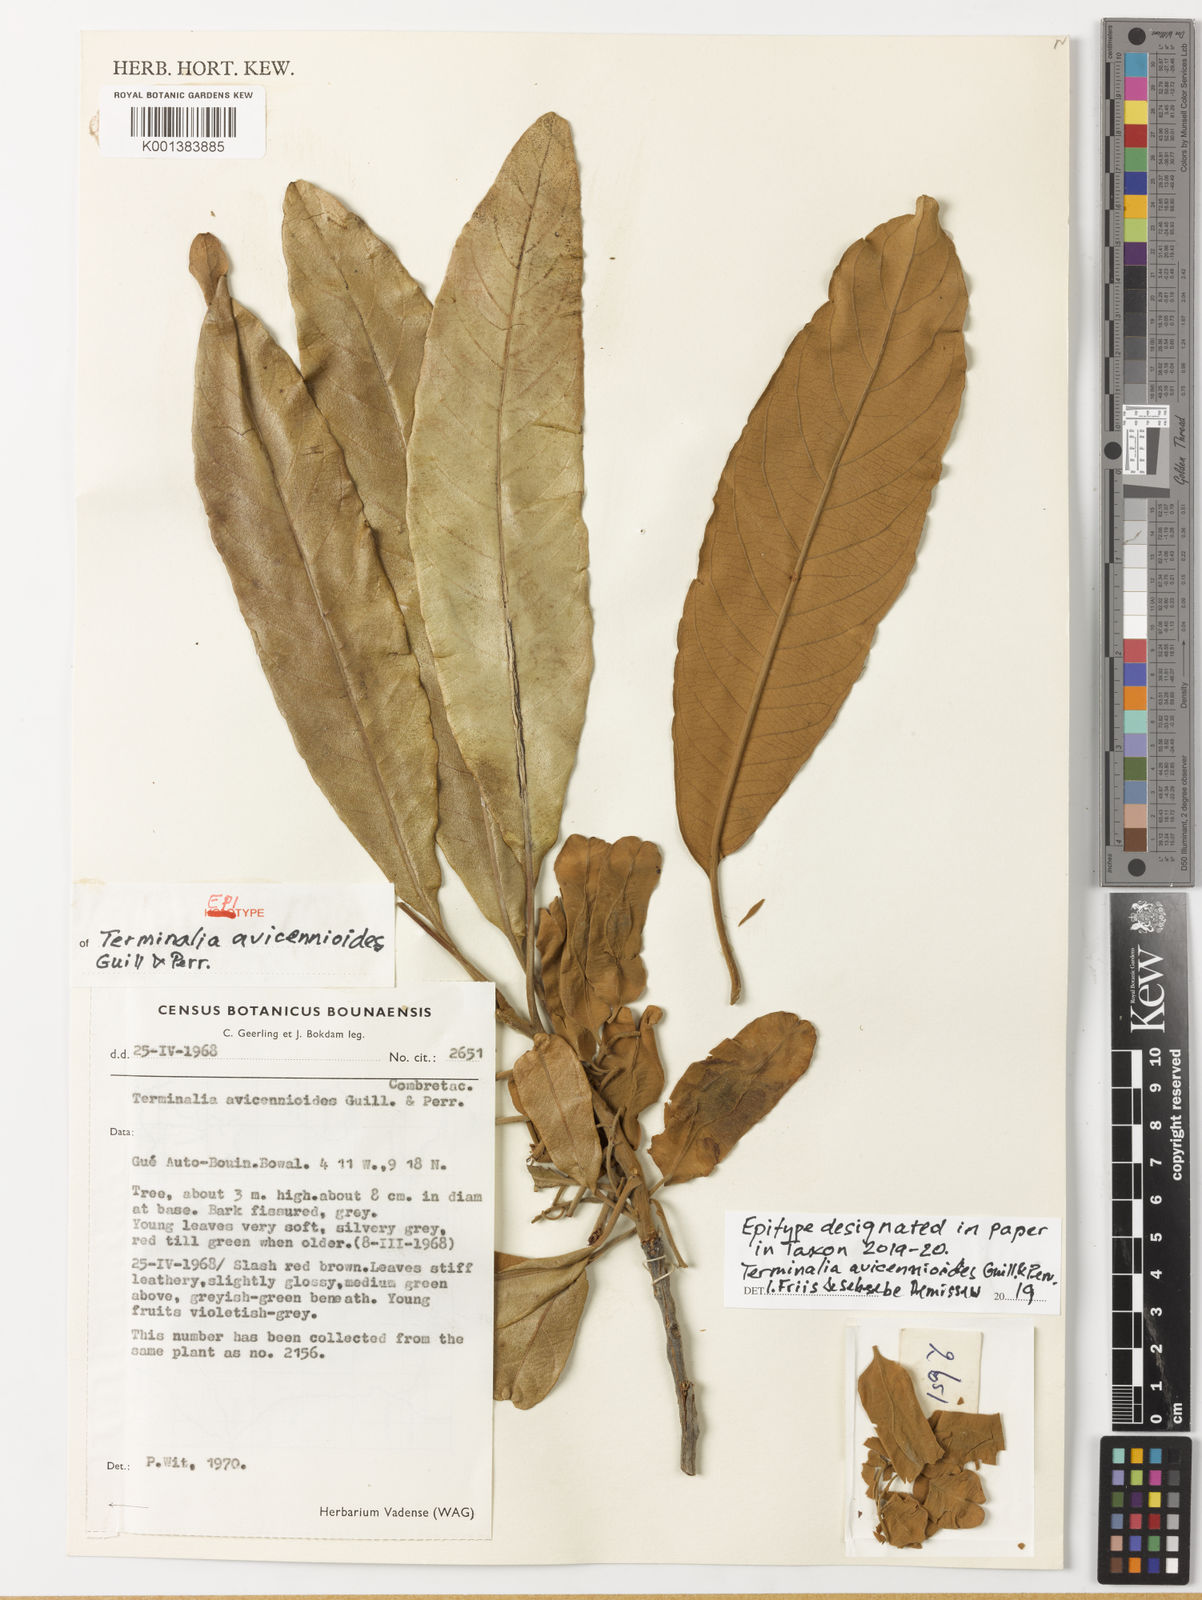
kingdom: Plantae
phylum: Tracheophyta
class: Magnoliopsida
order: Myrtales
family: Combretaceae
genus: Terminalia
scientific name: Terminalia avicennioides
